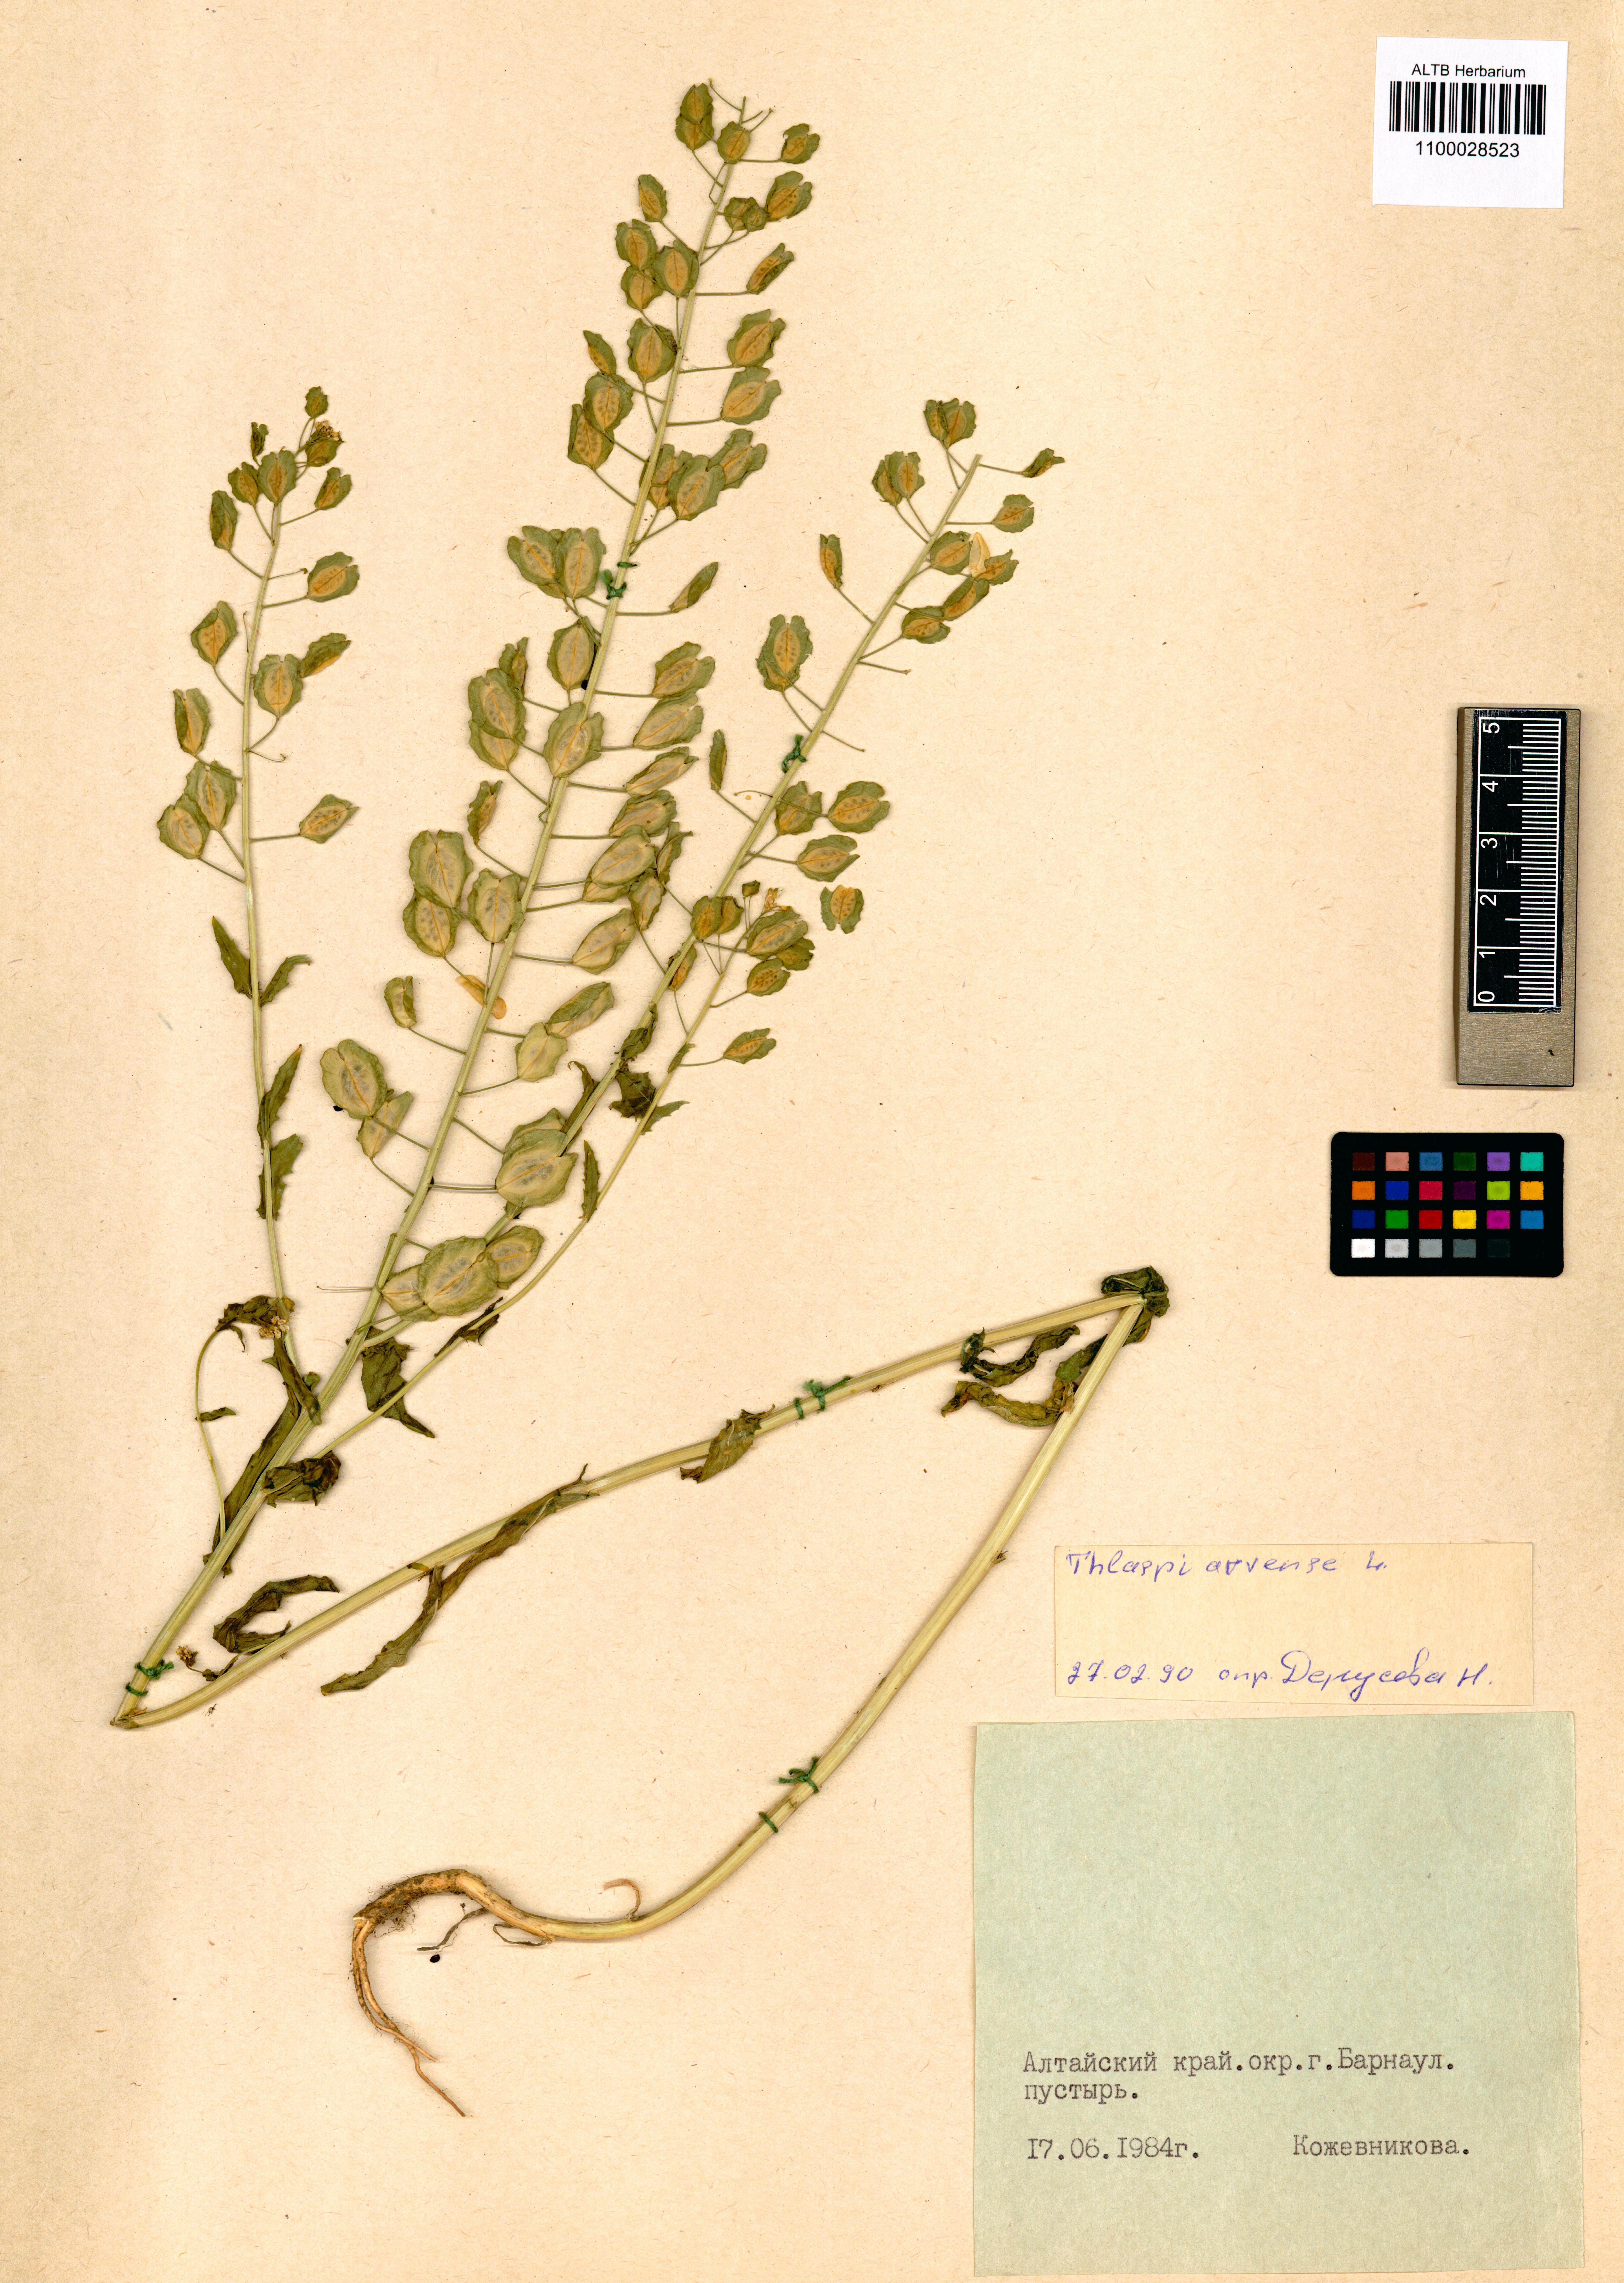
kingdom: Plantae
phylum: Tracheophyta
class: Magnoliopsida
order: Brassicales
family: Brassicaceae
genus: Thlaspi
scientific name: Thlaspi arvense
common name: Field pennycress
